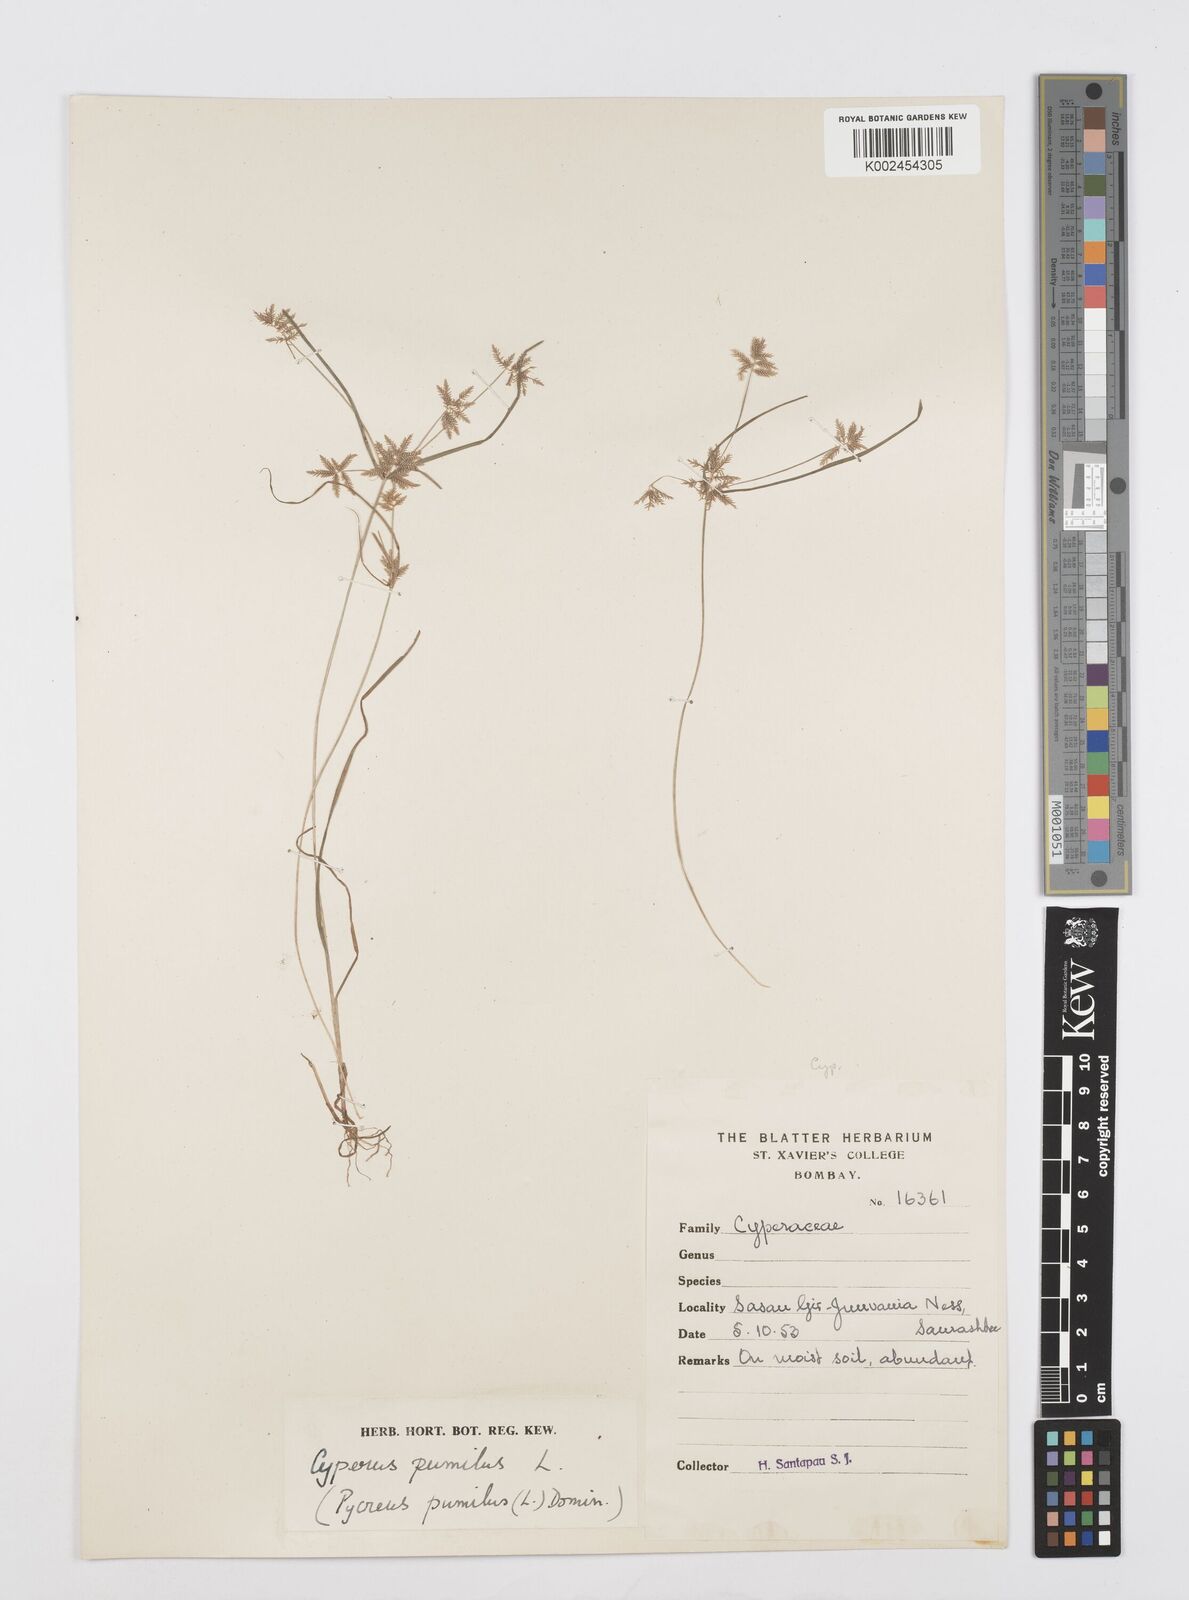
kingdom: Plantae
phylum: Tracheophyta
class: Liliopsida
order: Poales
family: Cyperaceae
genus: Cyperus
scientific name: Cyperus pumilus
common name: Low flatsedge
